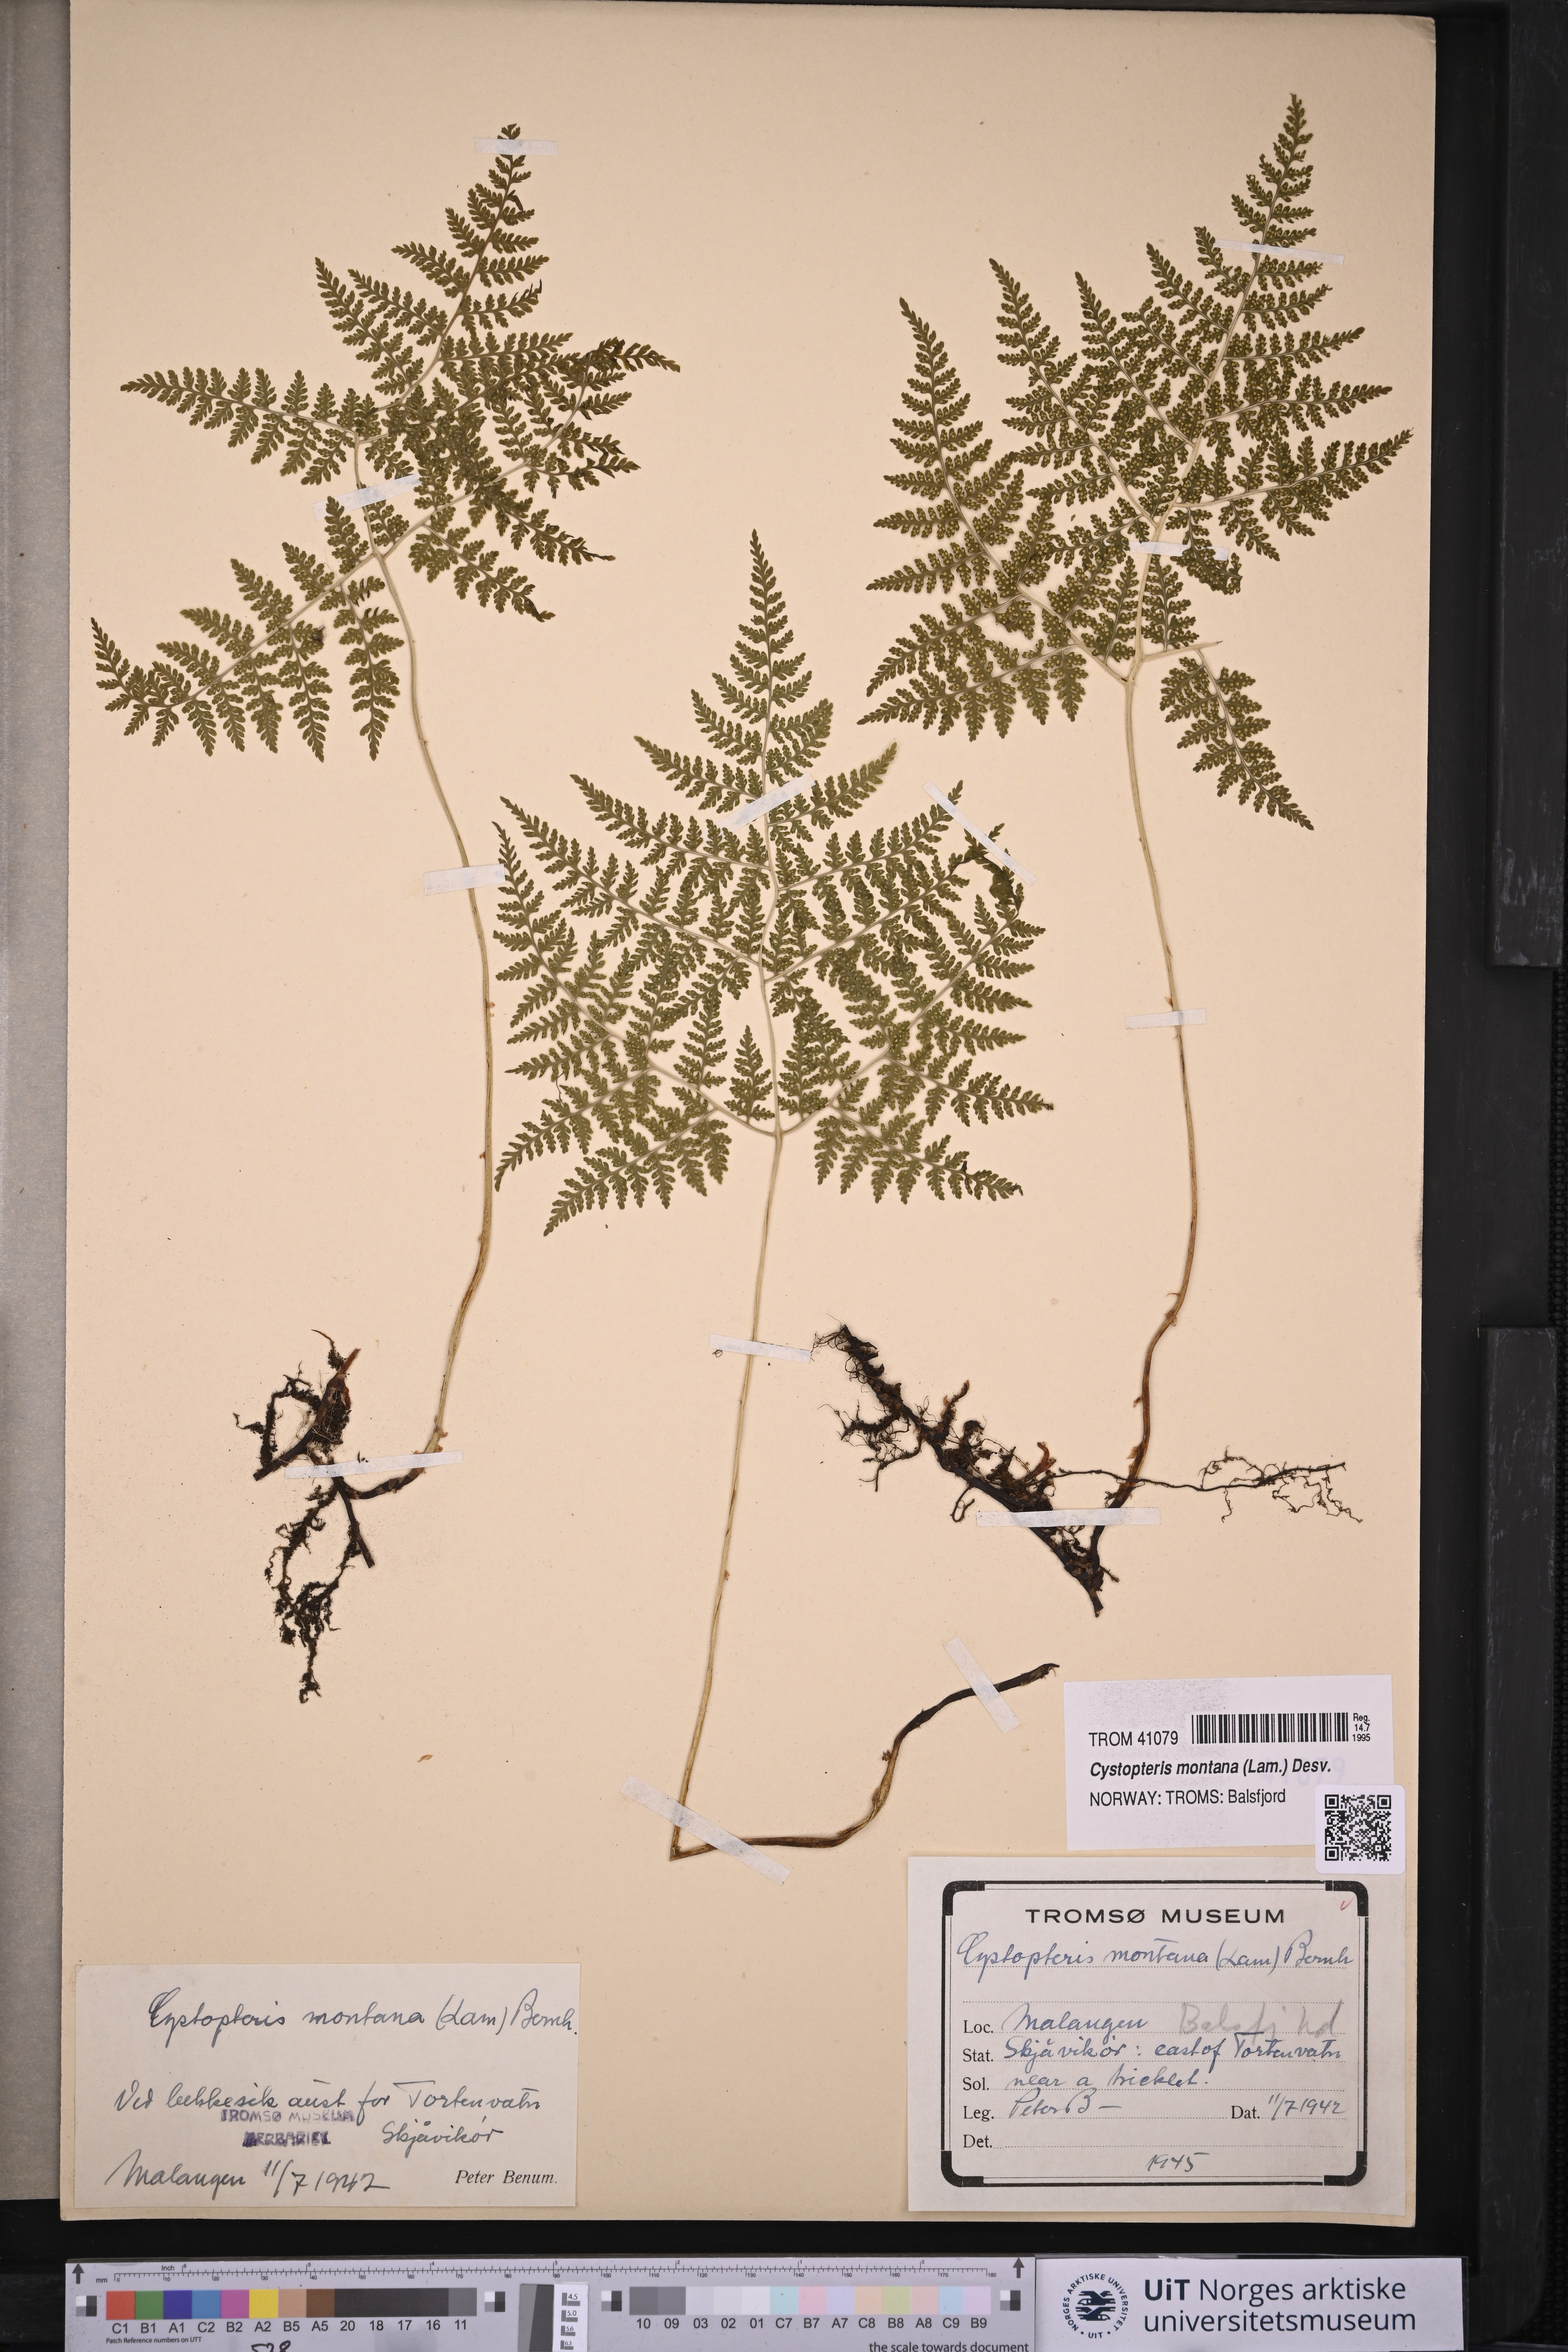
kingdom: Plantae
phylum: Tracheophyta
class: Polypodiopsida
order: Polypodiales
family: Cystopteridaceae
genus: Cystopteris
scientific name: Cystopteris montana
